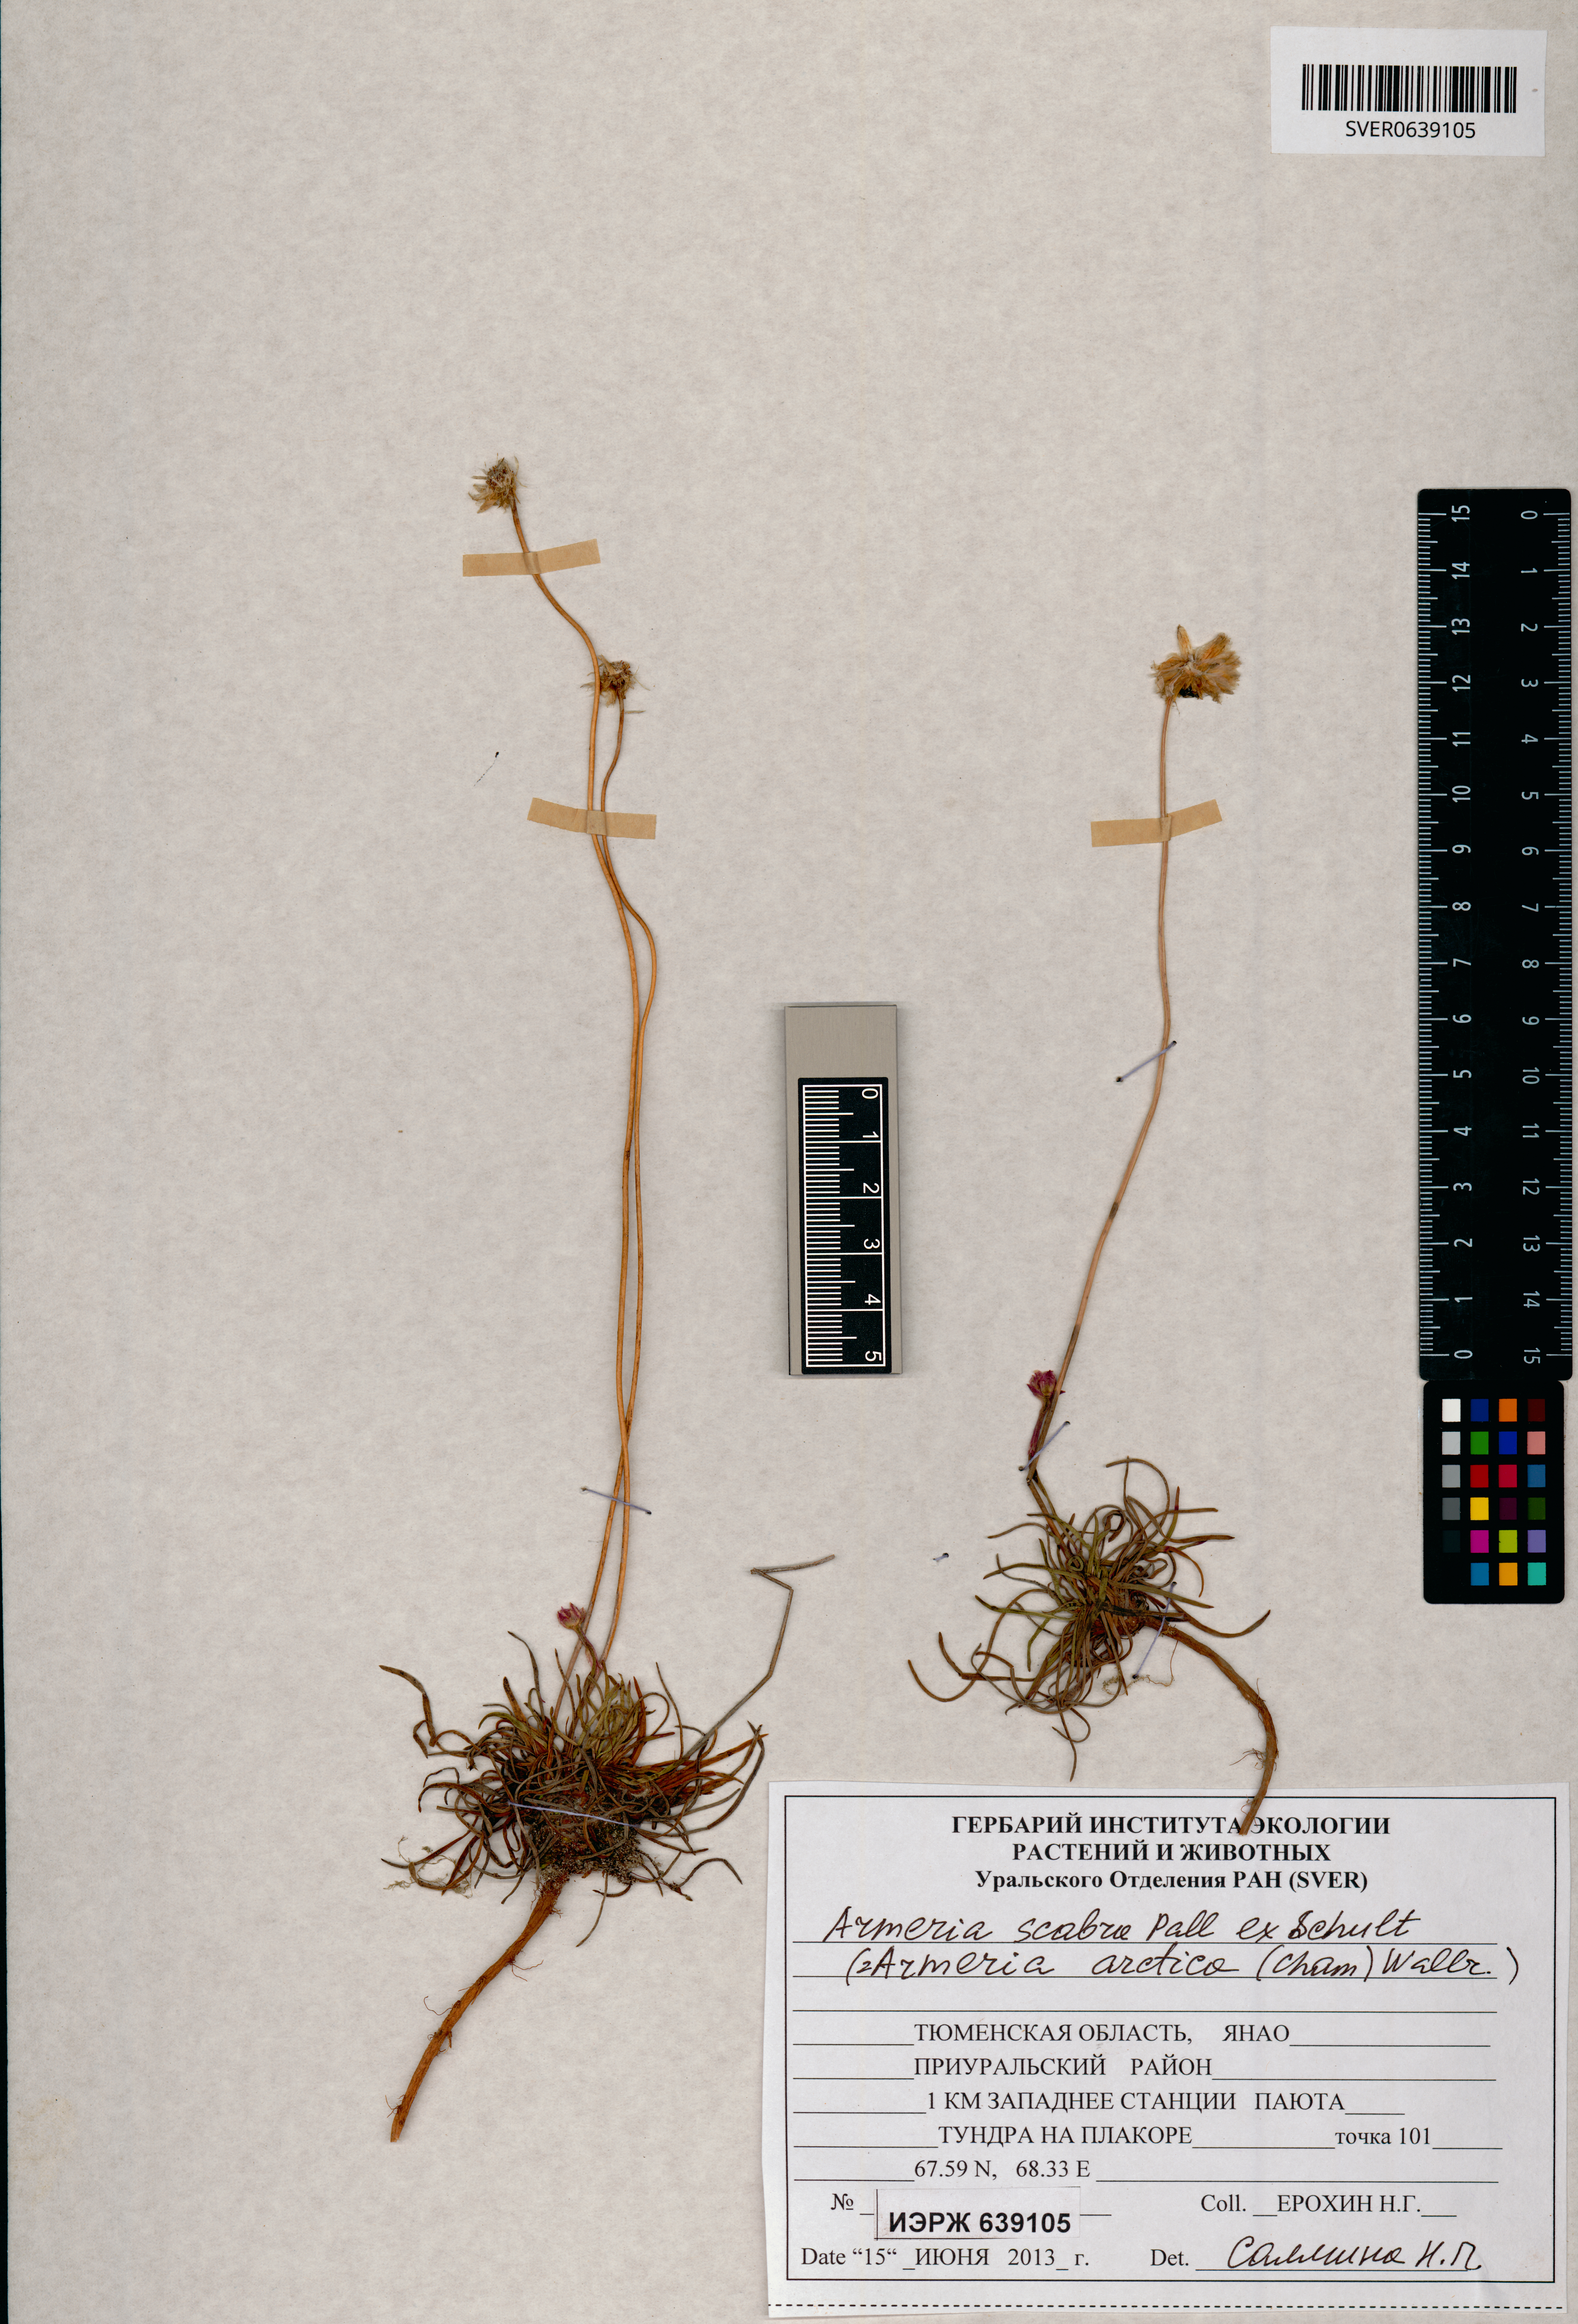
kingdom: Plantae
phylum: Tracheophyta
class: Magnoliopsida
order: Caryophyllales
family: Plumbaginaceae
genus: Armeria
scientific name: Armeria maritima
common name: Thrift
